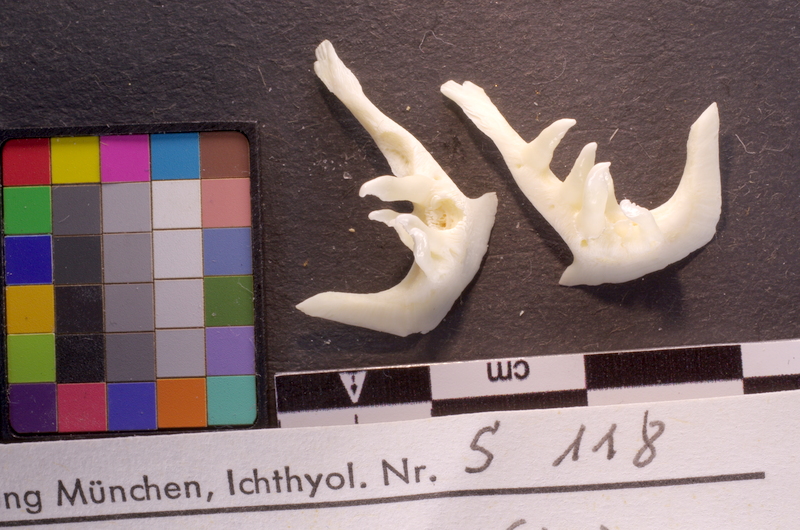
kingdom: Animalia
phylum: Chordata
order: Cypriniformes
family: Cyprinidae
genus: Squalius
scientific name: Squalius cephalus
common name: Chub
